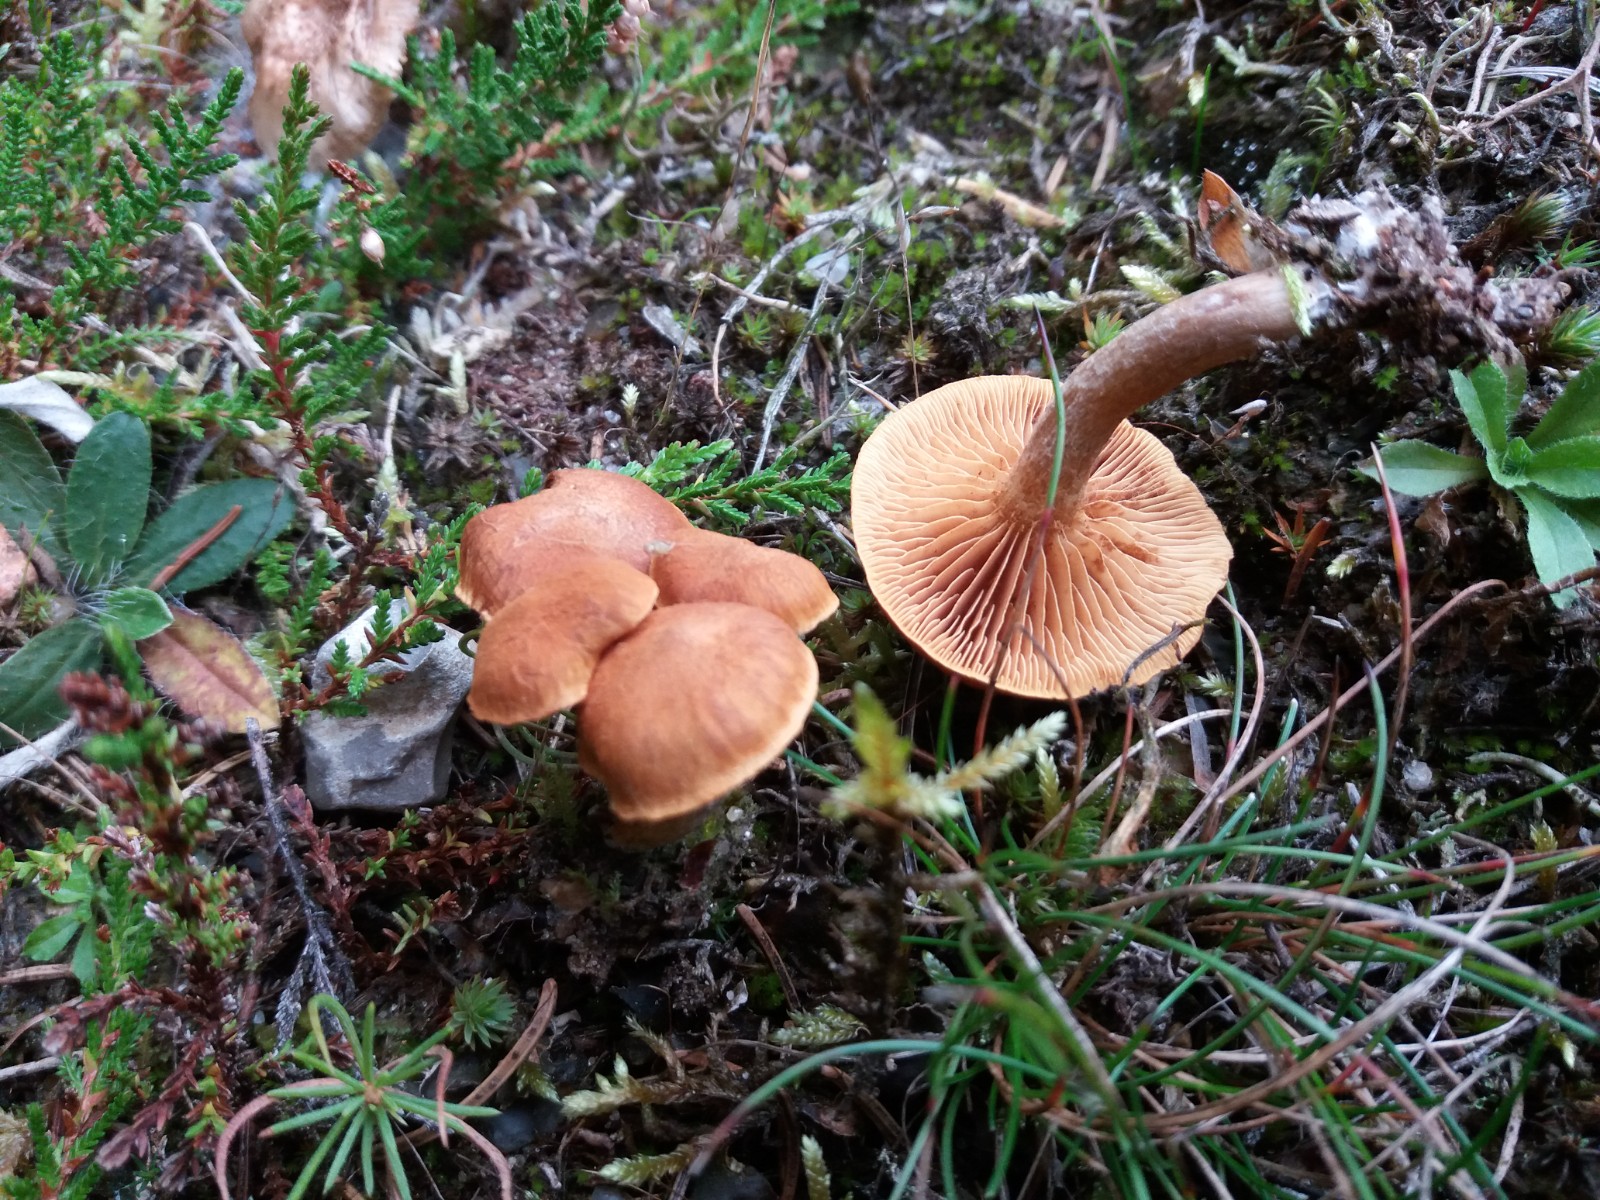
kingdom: Fungi
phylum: Basidiomycota
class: Agaricomycetes
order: Agaricales
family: Hymenogastraceae
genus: Gymnopilus
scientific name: Gymnopilus decipiens
